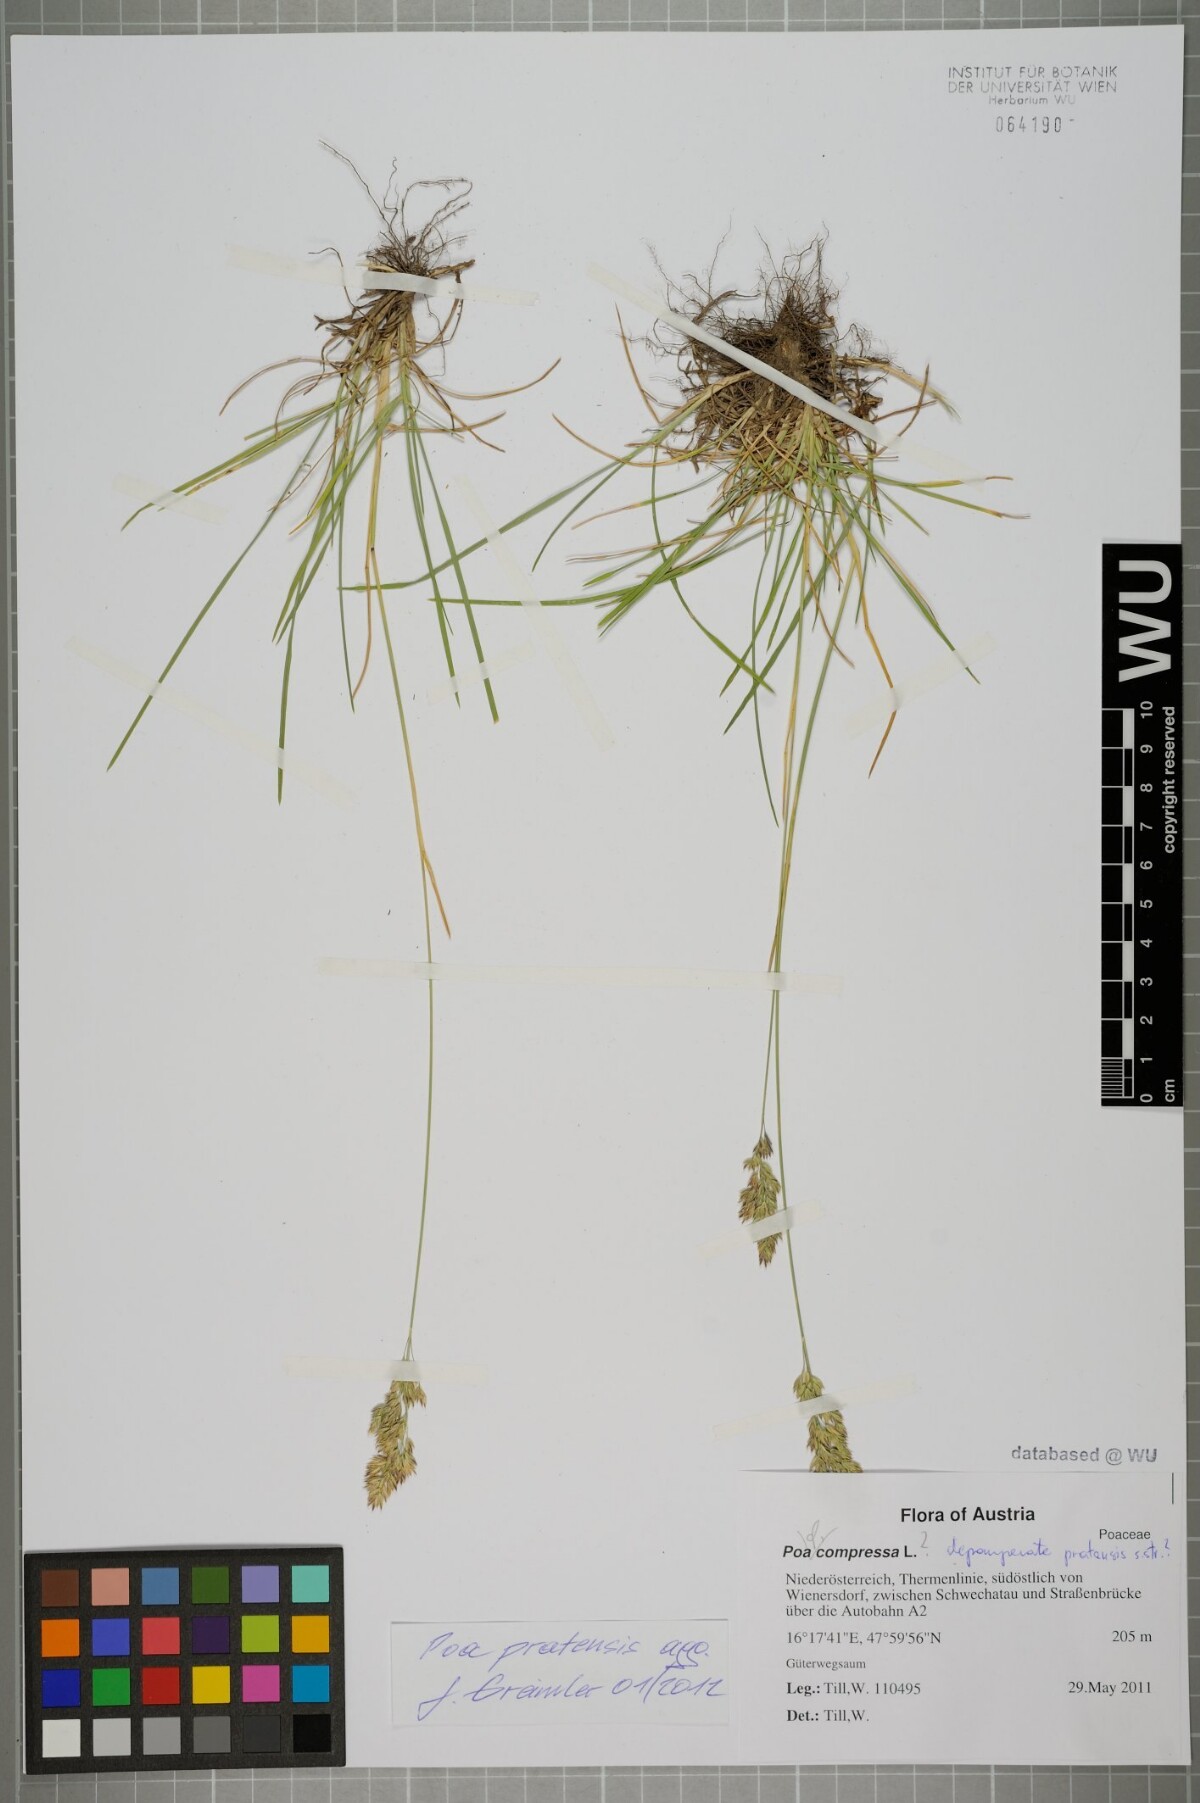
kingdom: Plantae
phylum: Tracheophyta
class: Liliopsida
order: Poales
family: Poaceae
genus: Poa
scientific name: Poa pratensis
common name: Kentucky bluegrass
